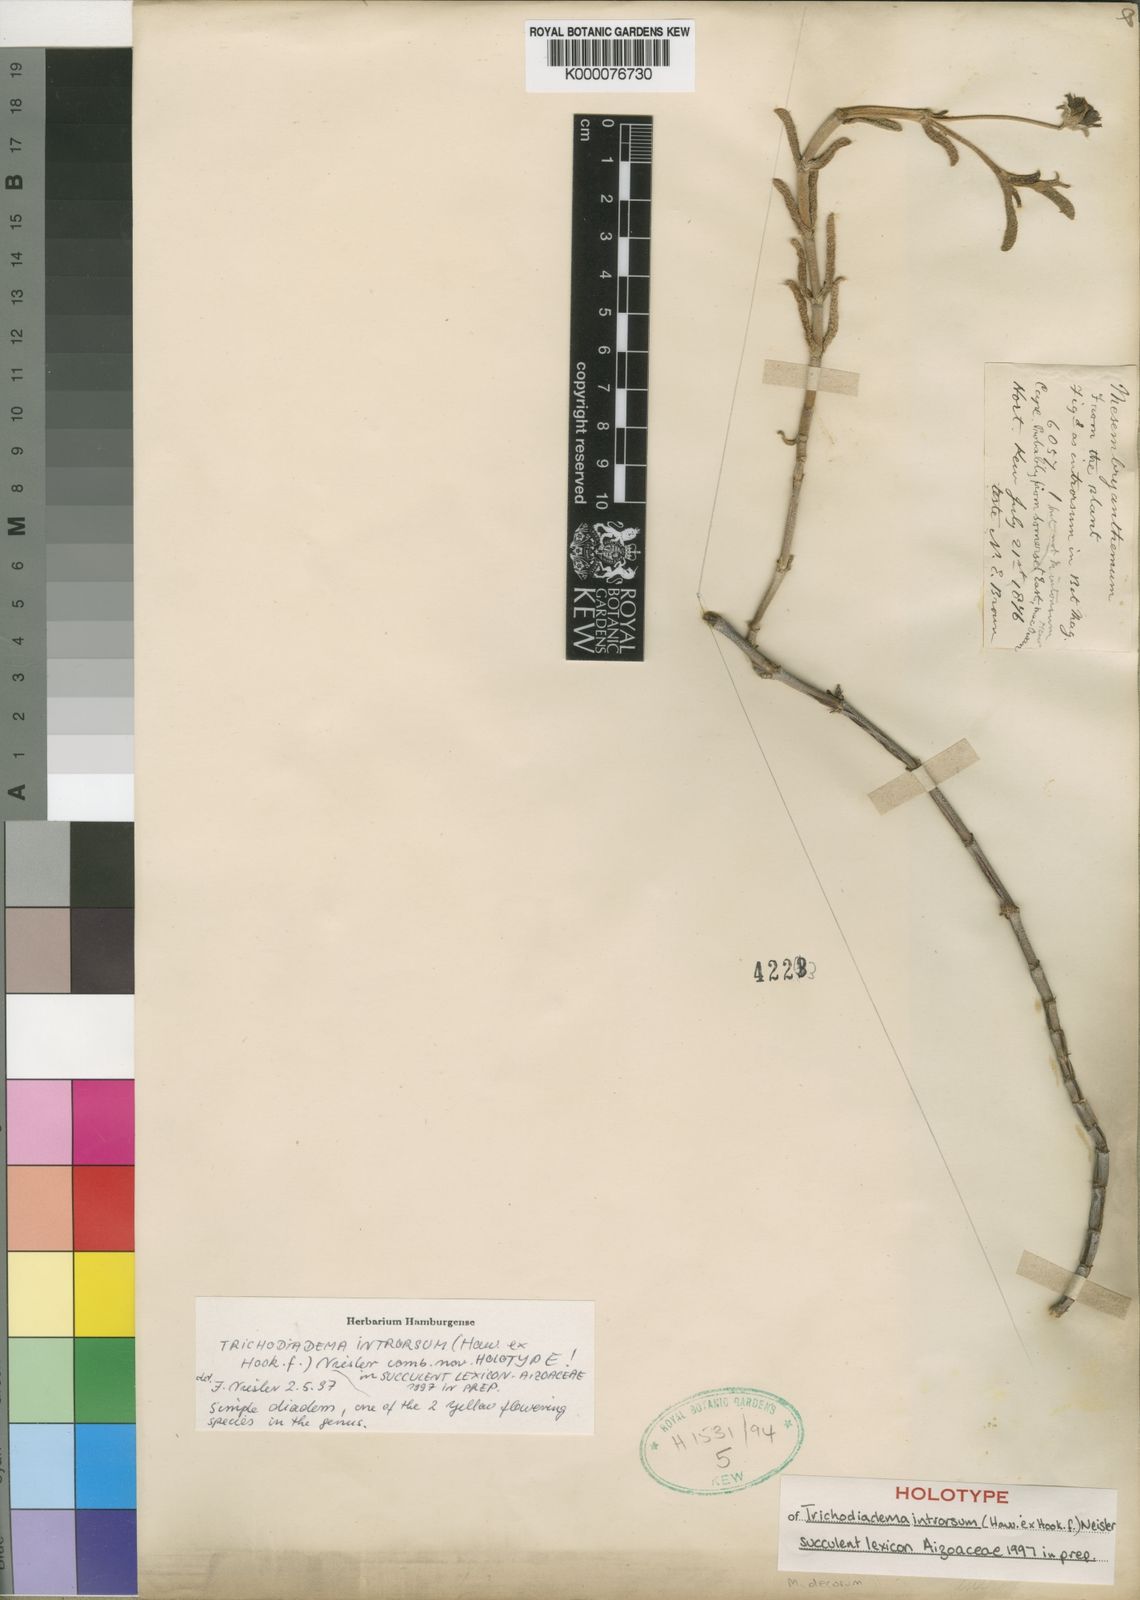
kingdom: Plantae
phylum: Tracheophyta
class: Magnoliopsida
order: Caryophyllales
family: Aizoaceae
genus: Trichodiadema
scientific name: Trichodiadema introrsum
